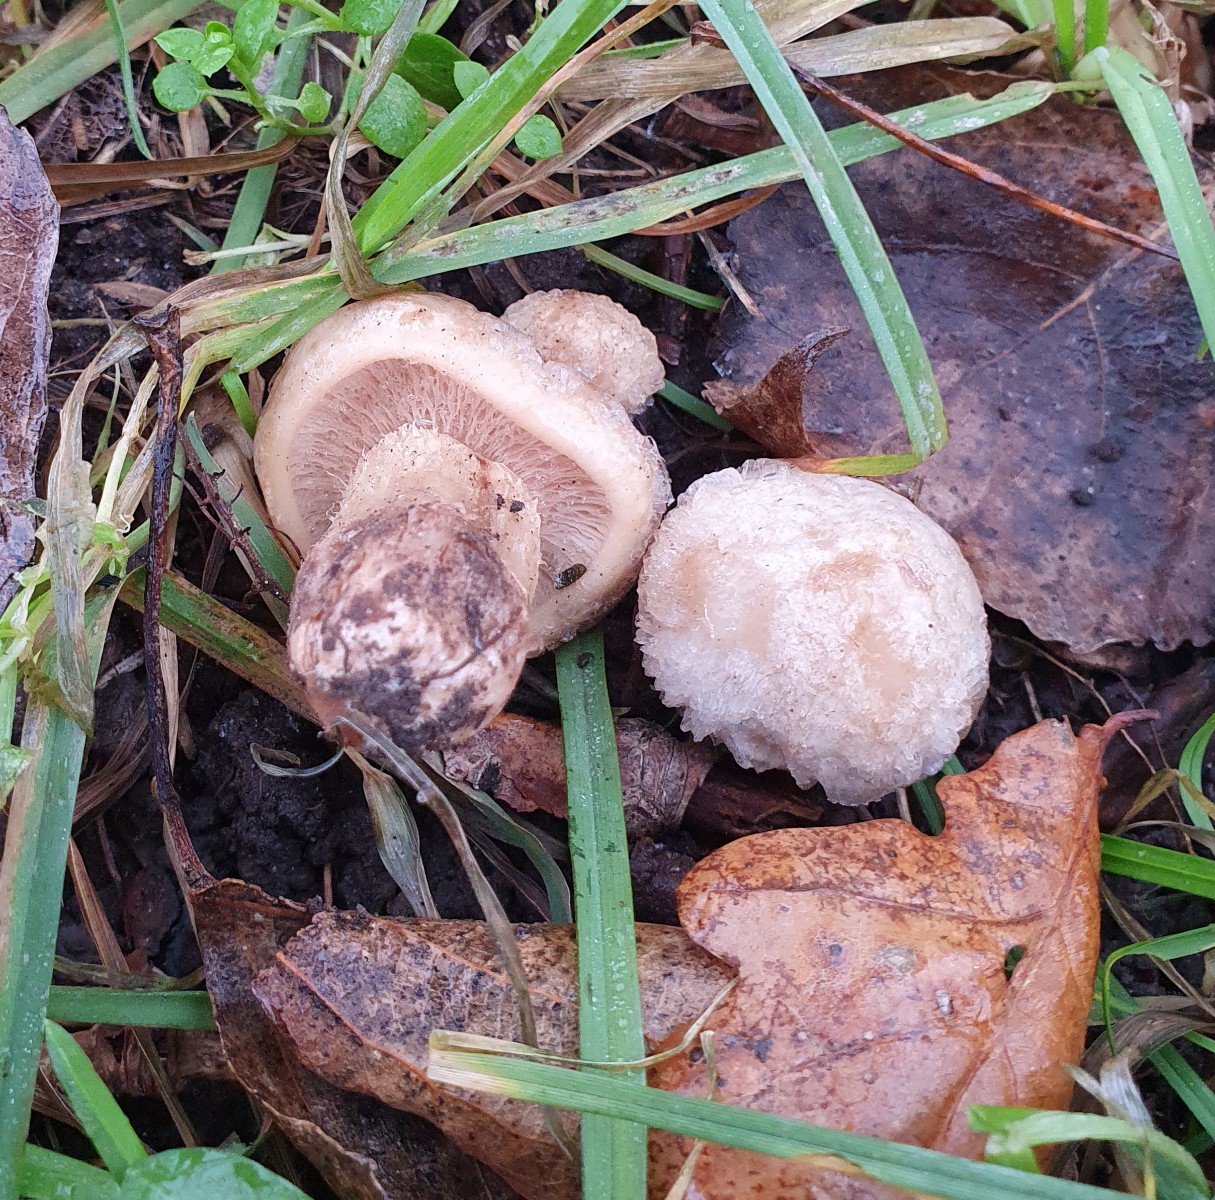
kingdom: Fungi
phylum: Basidiomycota
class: Agaricomycetes
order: Agaricales
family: Lyophyllaceae
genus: Calocybe
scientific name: Calocybe gambosa
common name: vårmusseron
